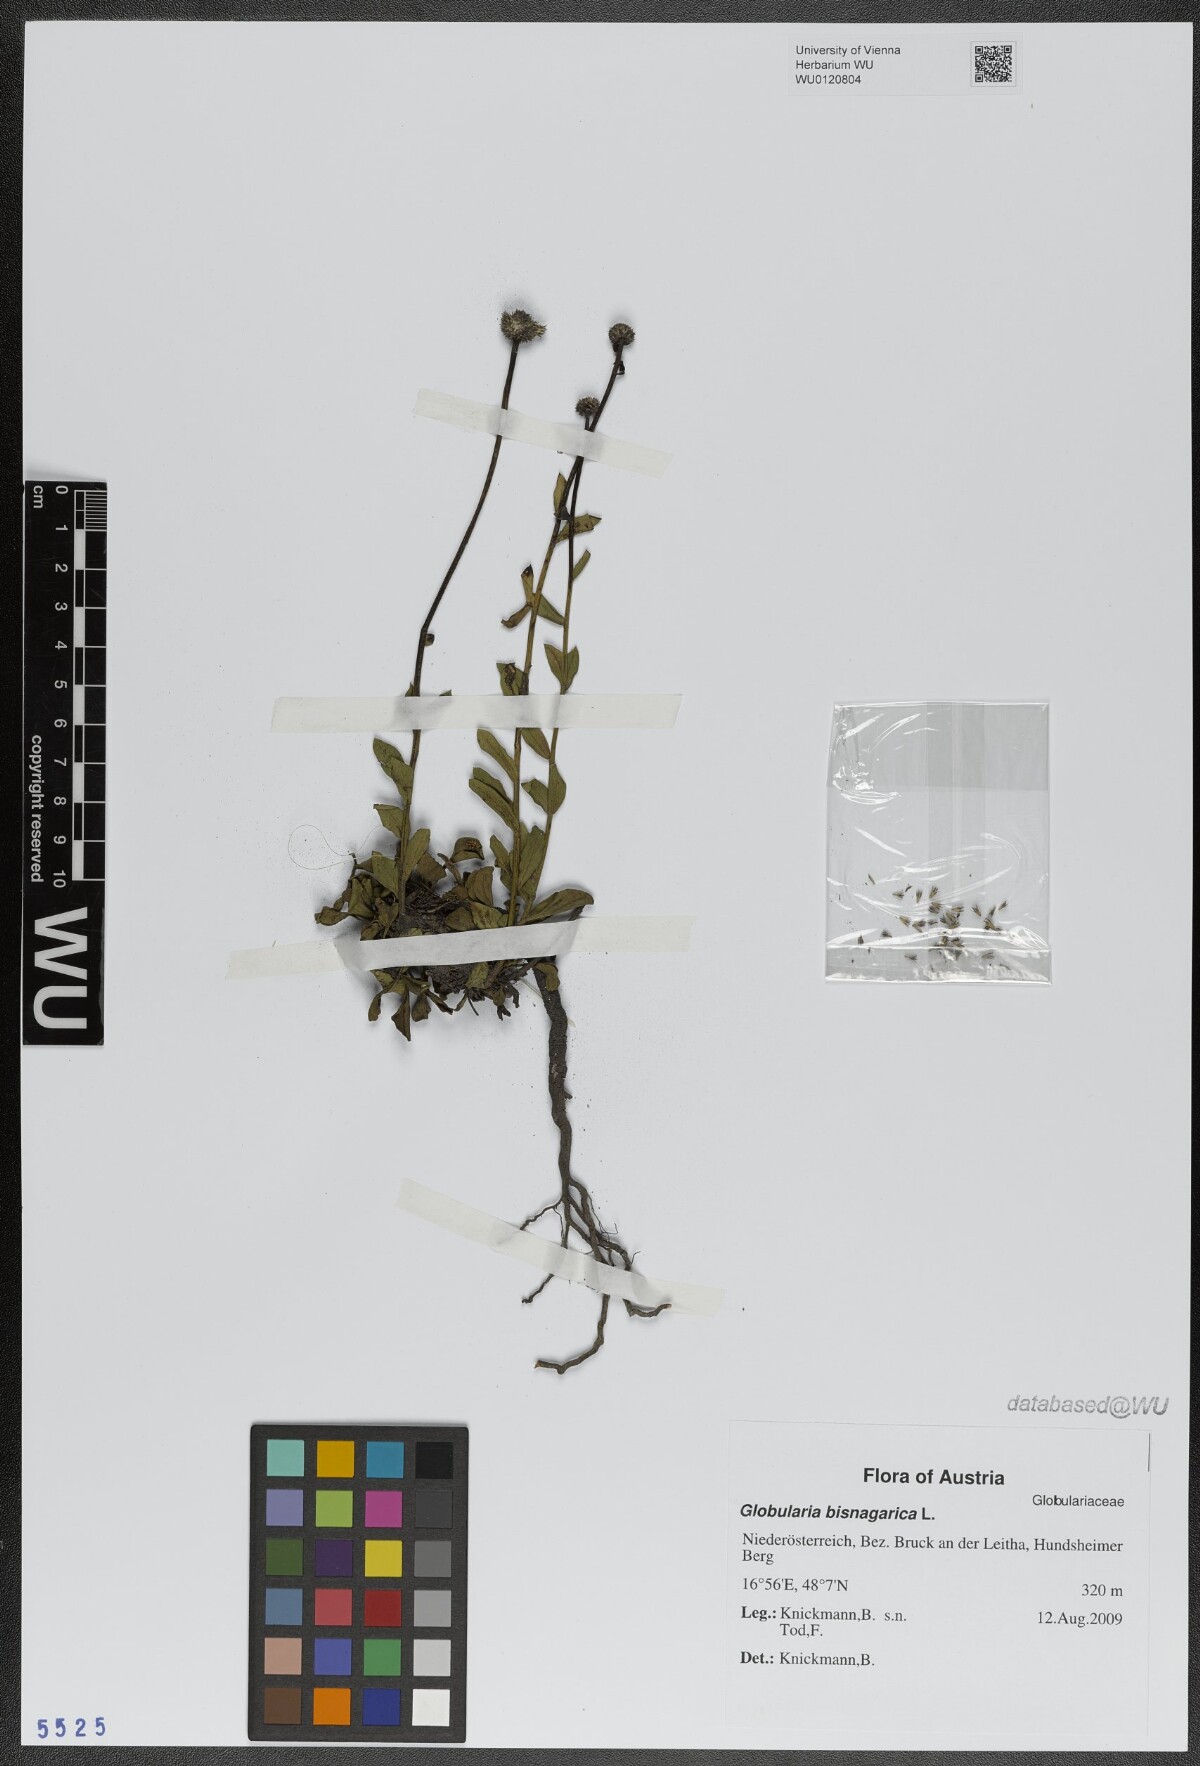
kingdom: Plantae
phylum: Tracheophyta
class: Magnoliopsida
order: Lamiales
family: Plantaginaceae
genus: Globularia
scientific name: Globularia bisnagarica
